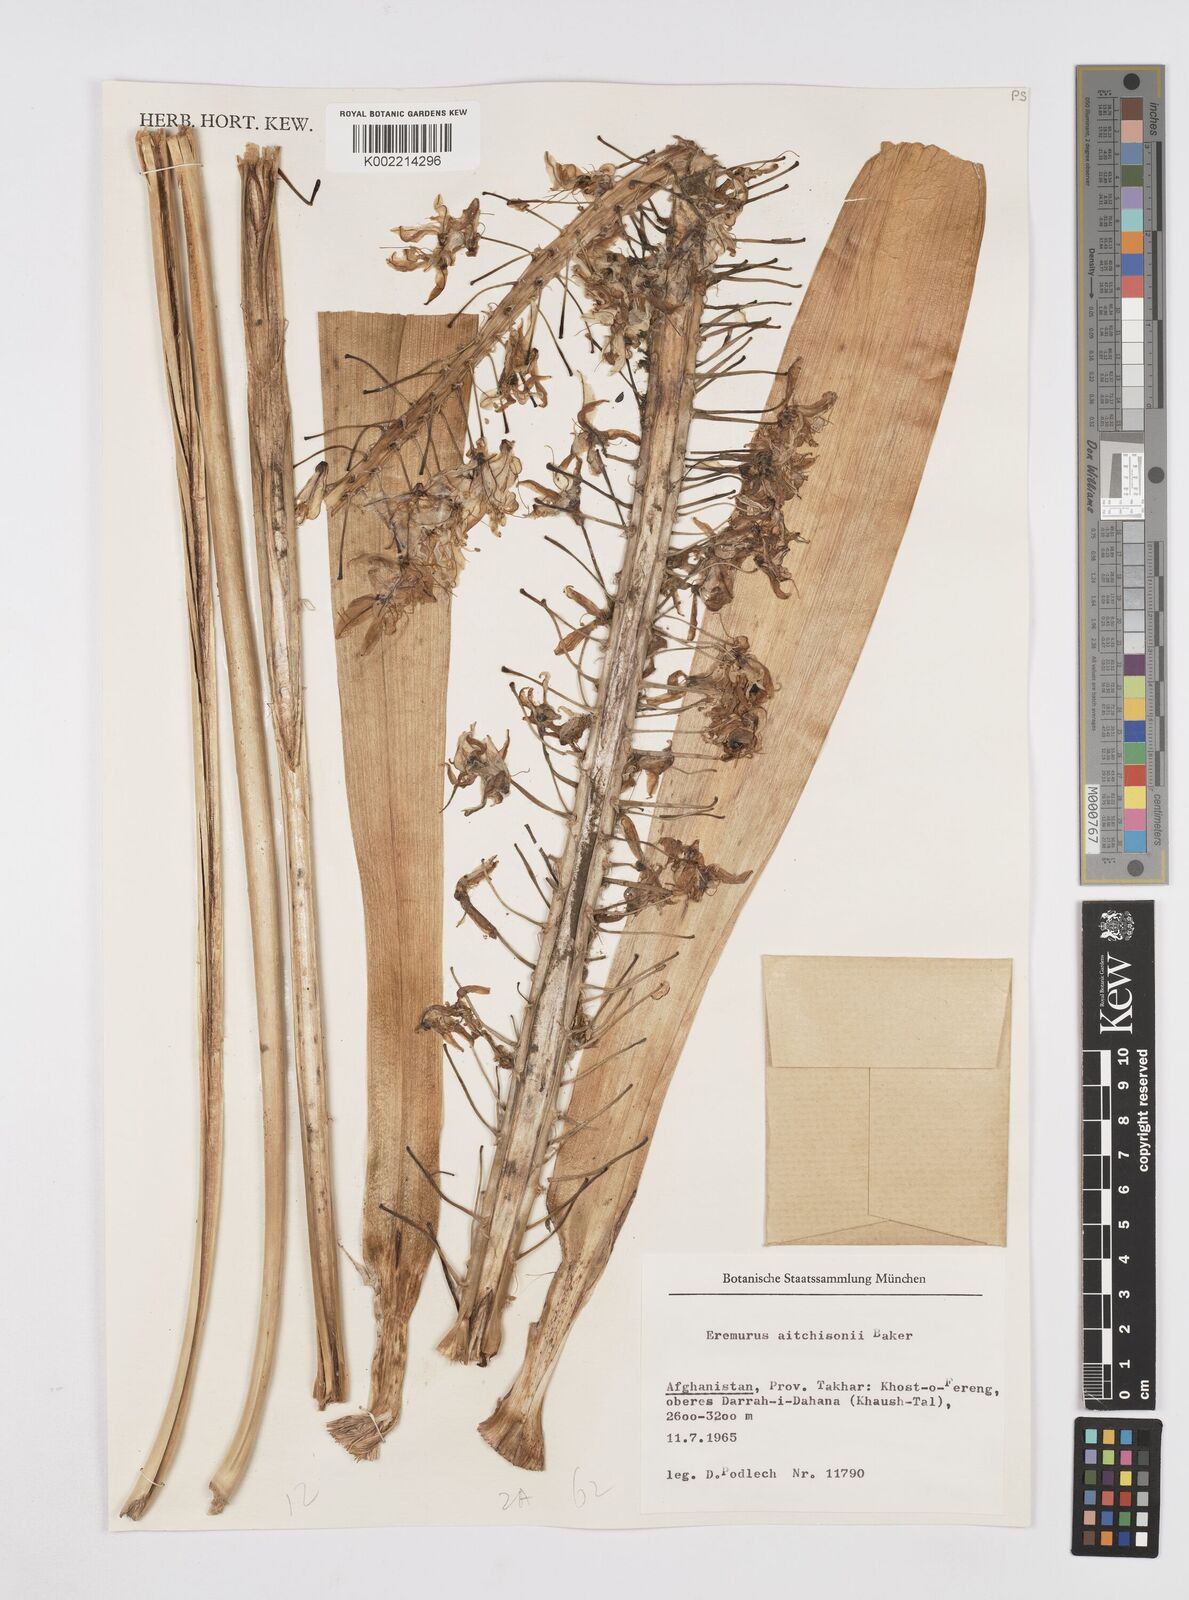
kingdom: Plantae
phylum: Tracheophyta
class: Liliopsida
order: Asparagales
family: Asphodelaceae
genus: Eremurus
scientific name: Eremurus aitchisonii
